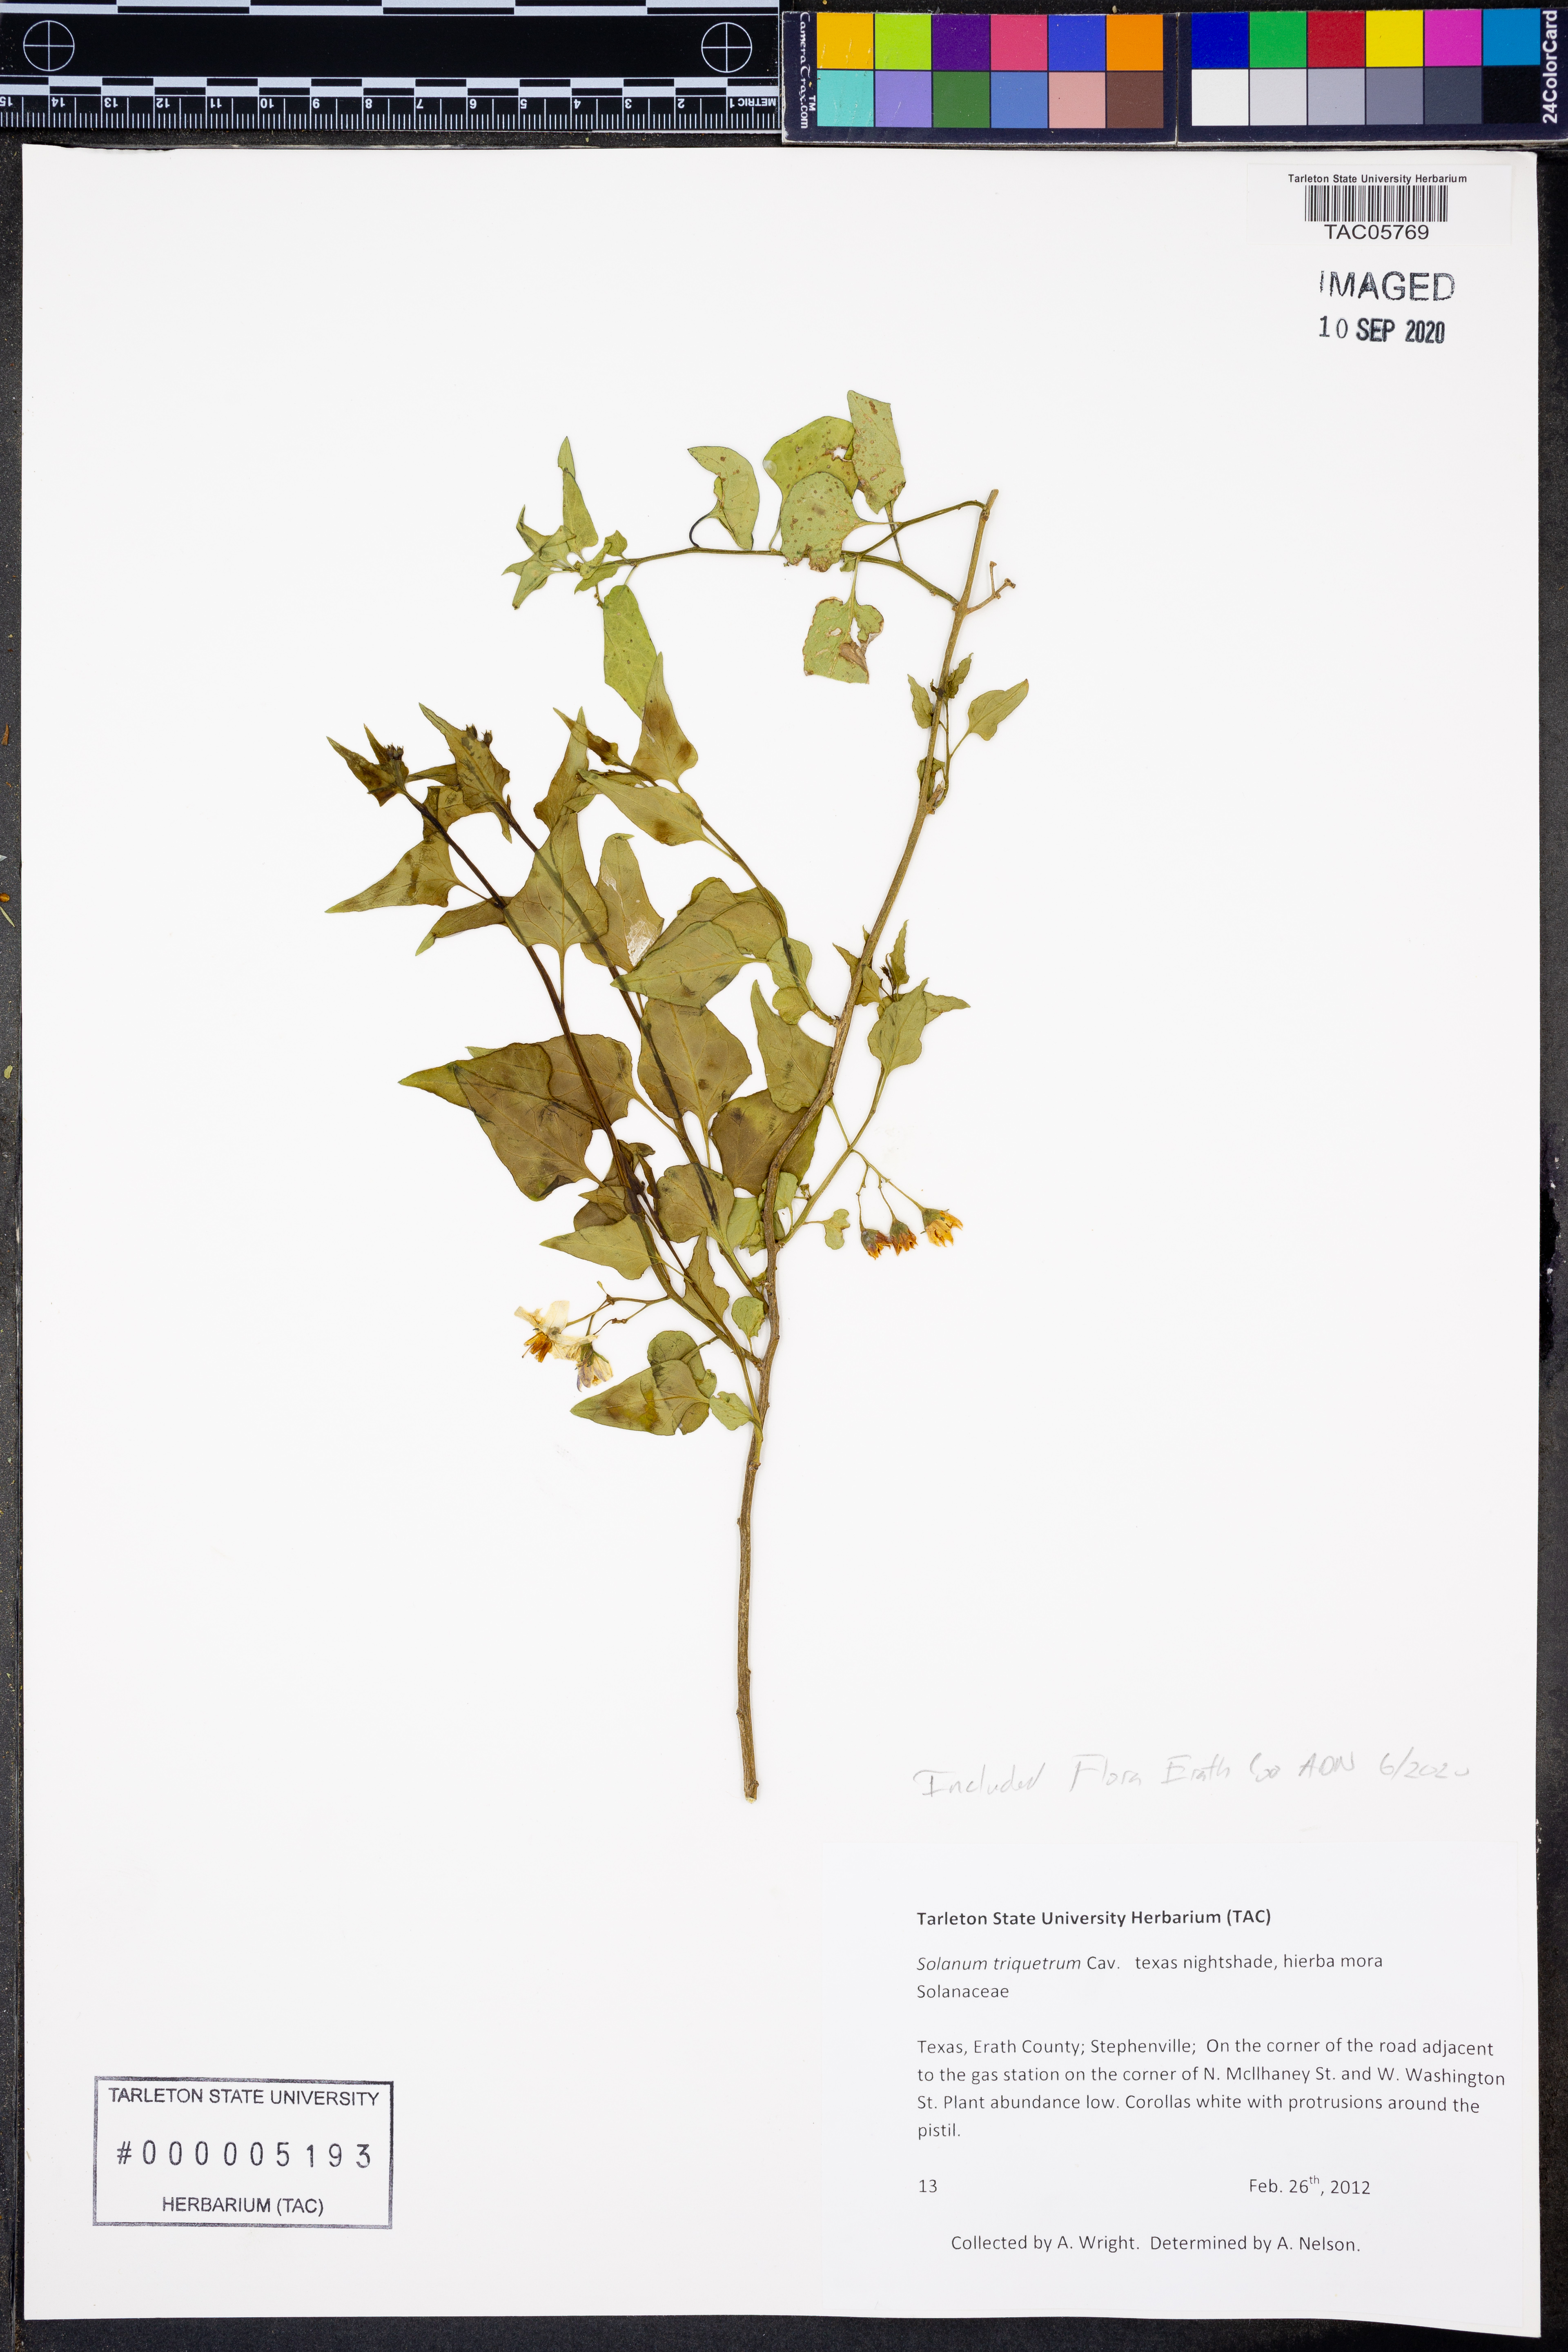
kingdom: Plantae
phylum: Tracheophyta
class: Magnoliopsida
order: Solanales
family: Solanaceae
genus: Solanum
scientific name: Solanum triquetrum
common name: Texas nightshade
